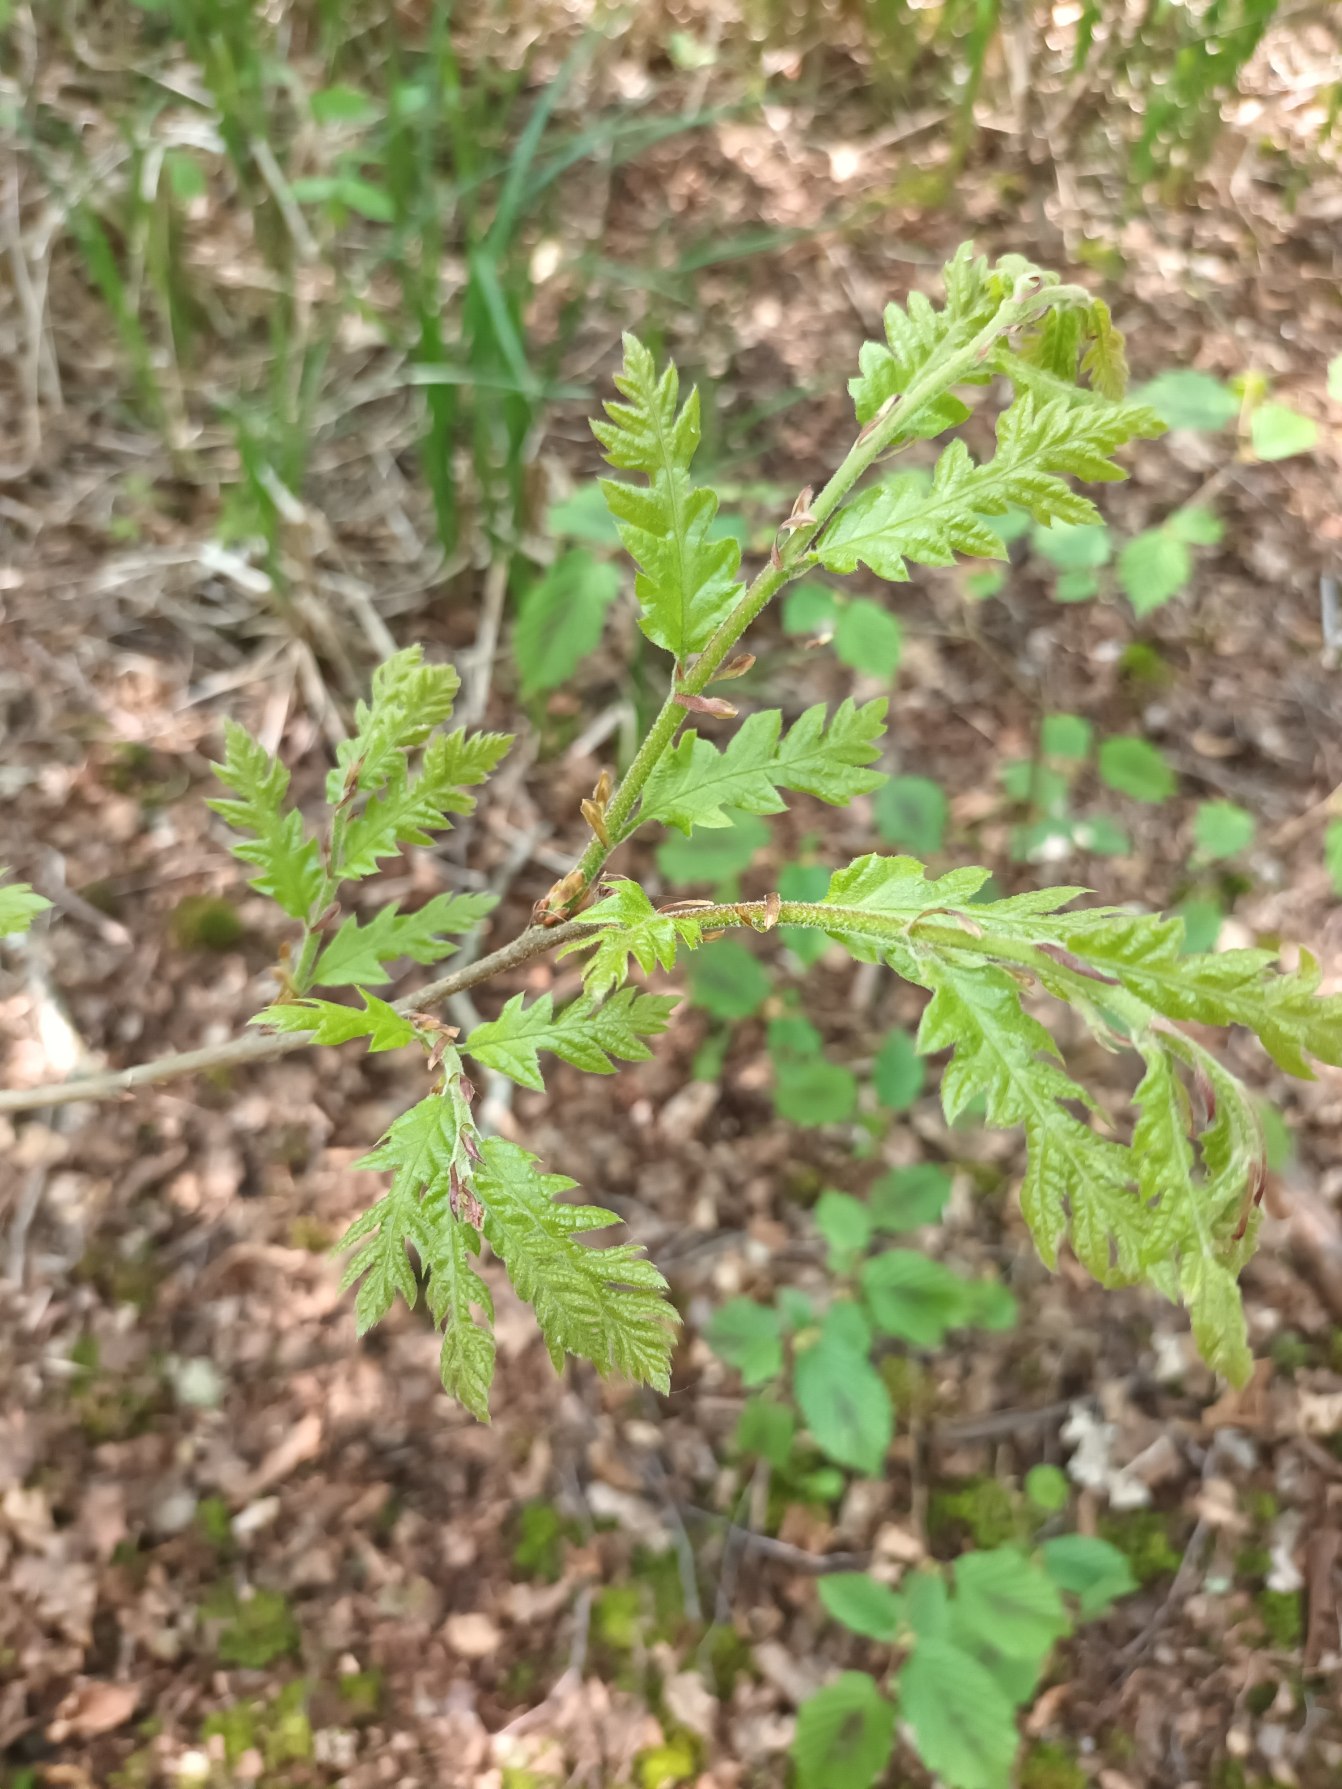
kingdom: Plantae
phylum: Tracheophyta
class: Magnoliopsida
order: Fagales
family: Fagaceae
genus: Quercus
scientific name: Quercus cerris
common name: Frynse-eg
